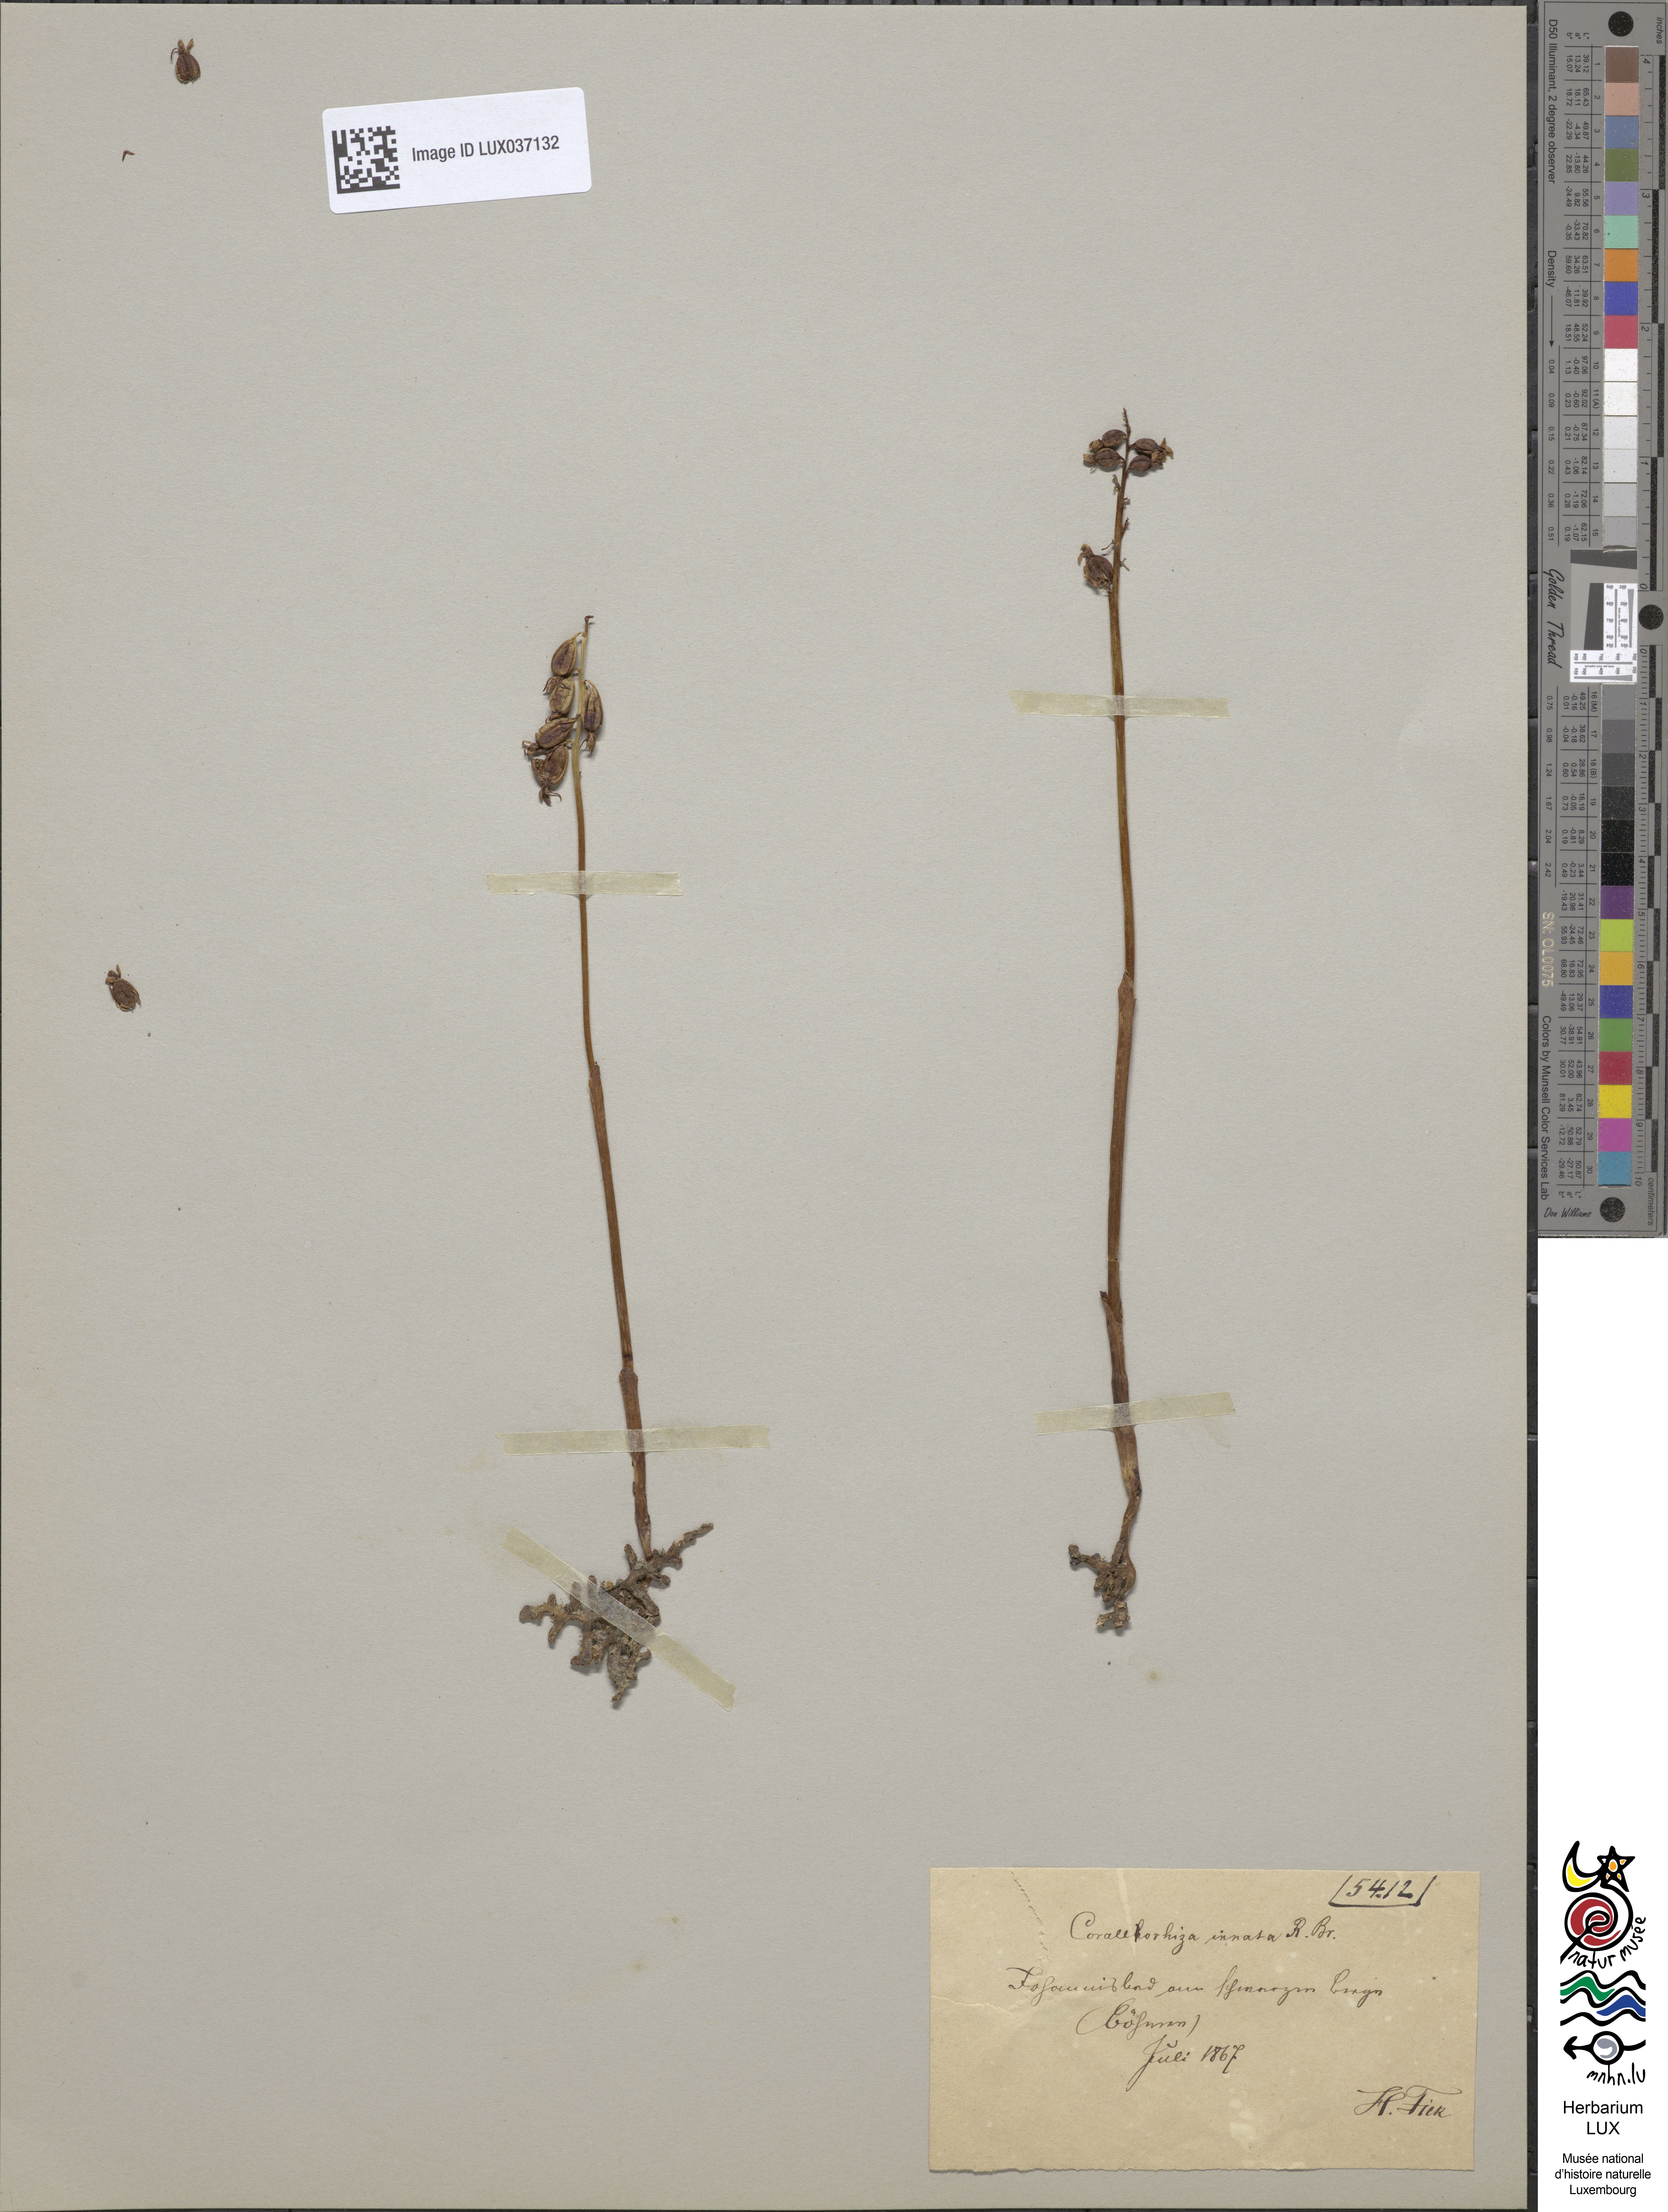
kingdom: Plantae
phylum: Tracheophyta
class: Liliopsida
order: Asparagales
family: Orchidaceae
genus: Corallorhiza
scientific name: Corallorhiza trifida
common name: Yellow coralroot
